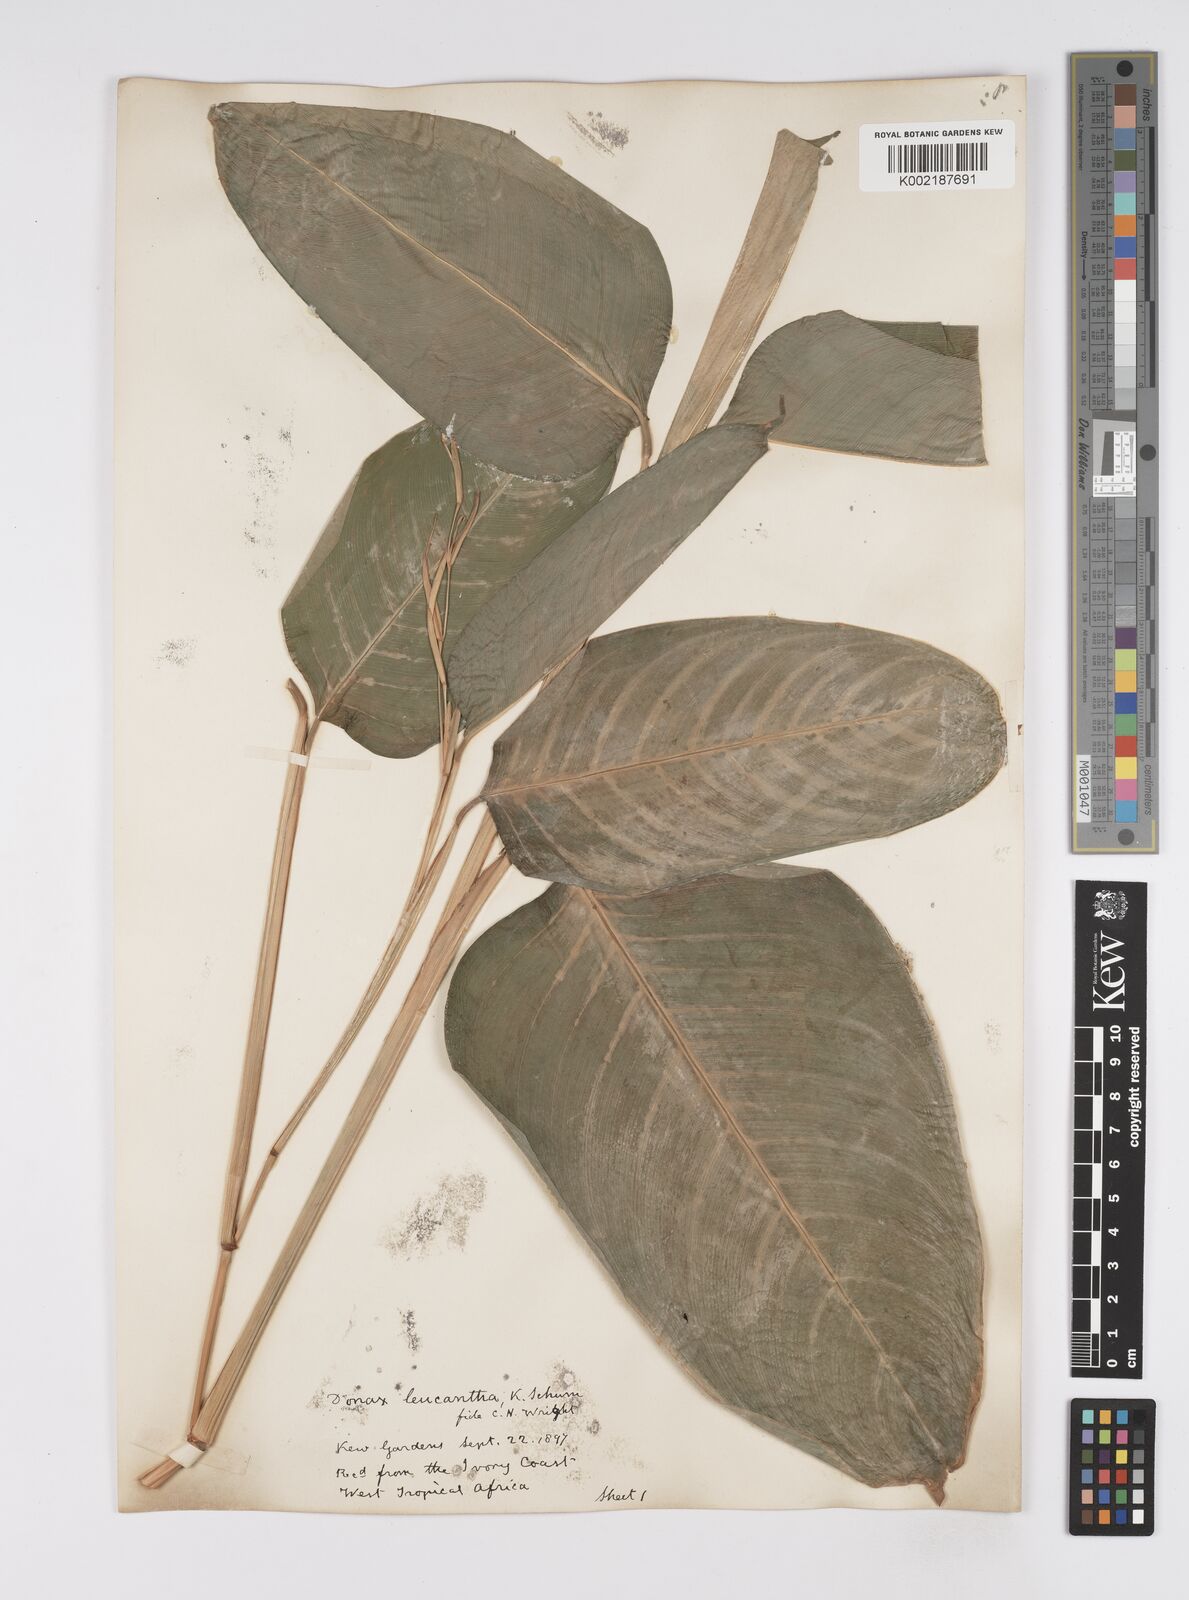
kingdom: Plantae
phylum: Tracheophyta
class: Liliopsida
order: Zingiberales
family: Marantaceae
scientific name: Marantaceae
